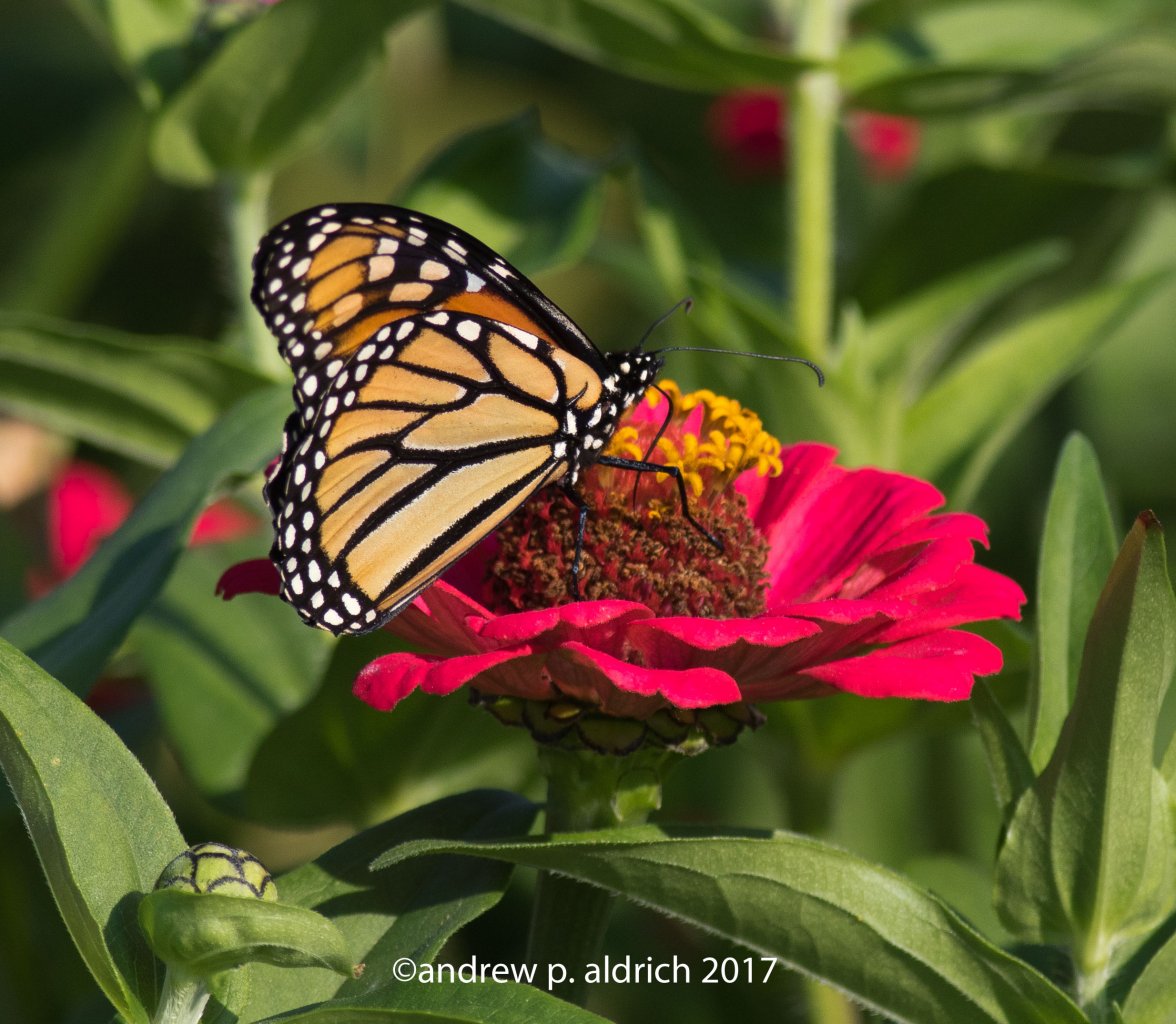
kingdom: Animalia
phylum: Arthropoda
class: Insecta
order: Lepidoptera
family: Nymphalidae
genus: Danaus
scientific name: Danaus plexippus
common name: Monarch
